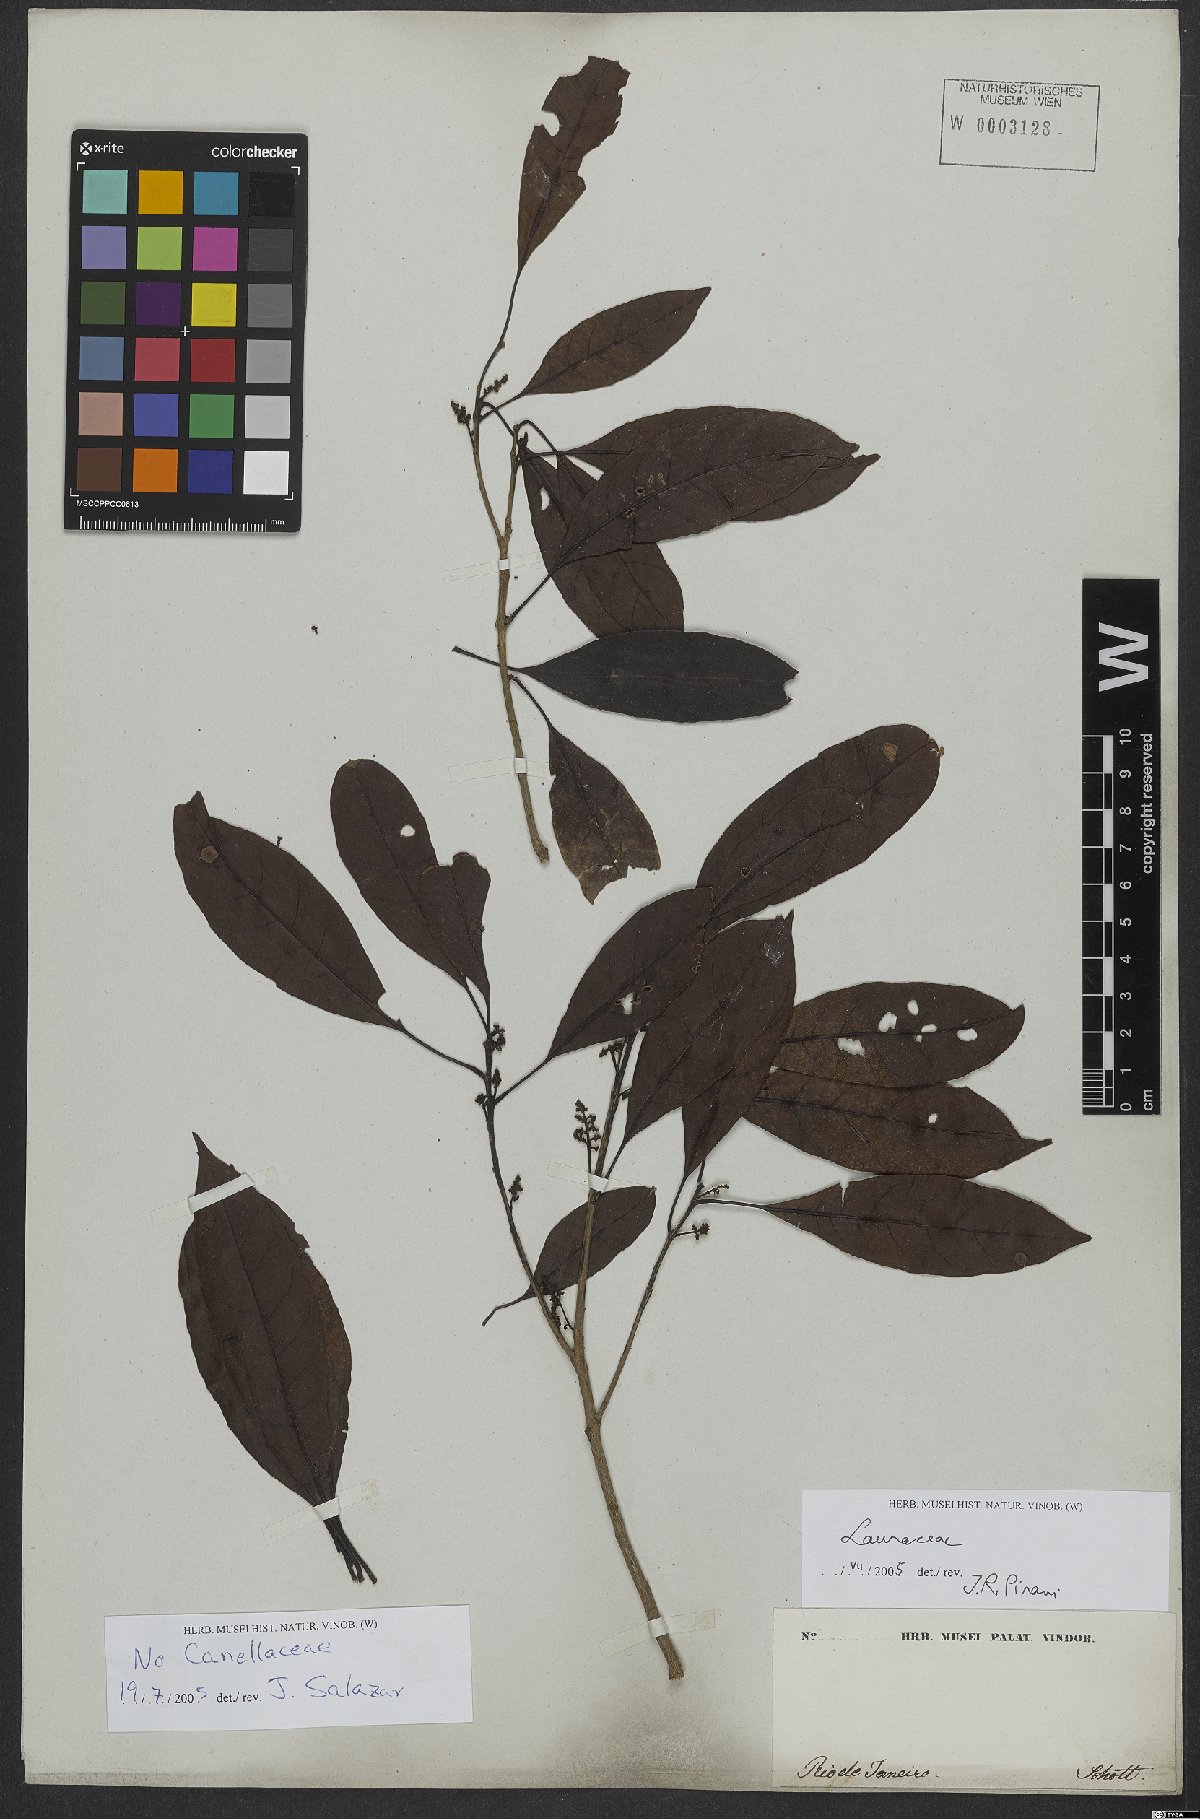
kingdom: Plantae
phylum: Tracheophyta
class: Magnoliopsida
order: Laurales
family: Lauraceae
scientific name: Lauraceae
